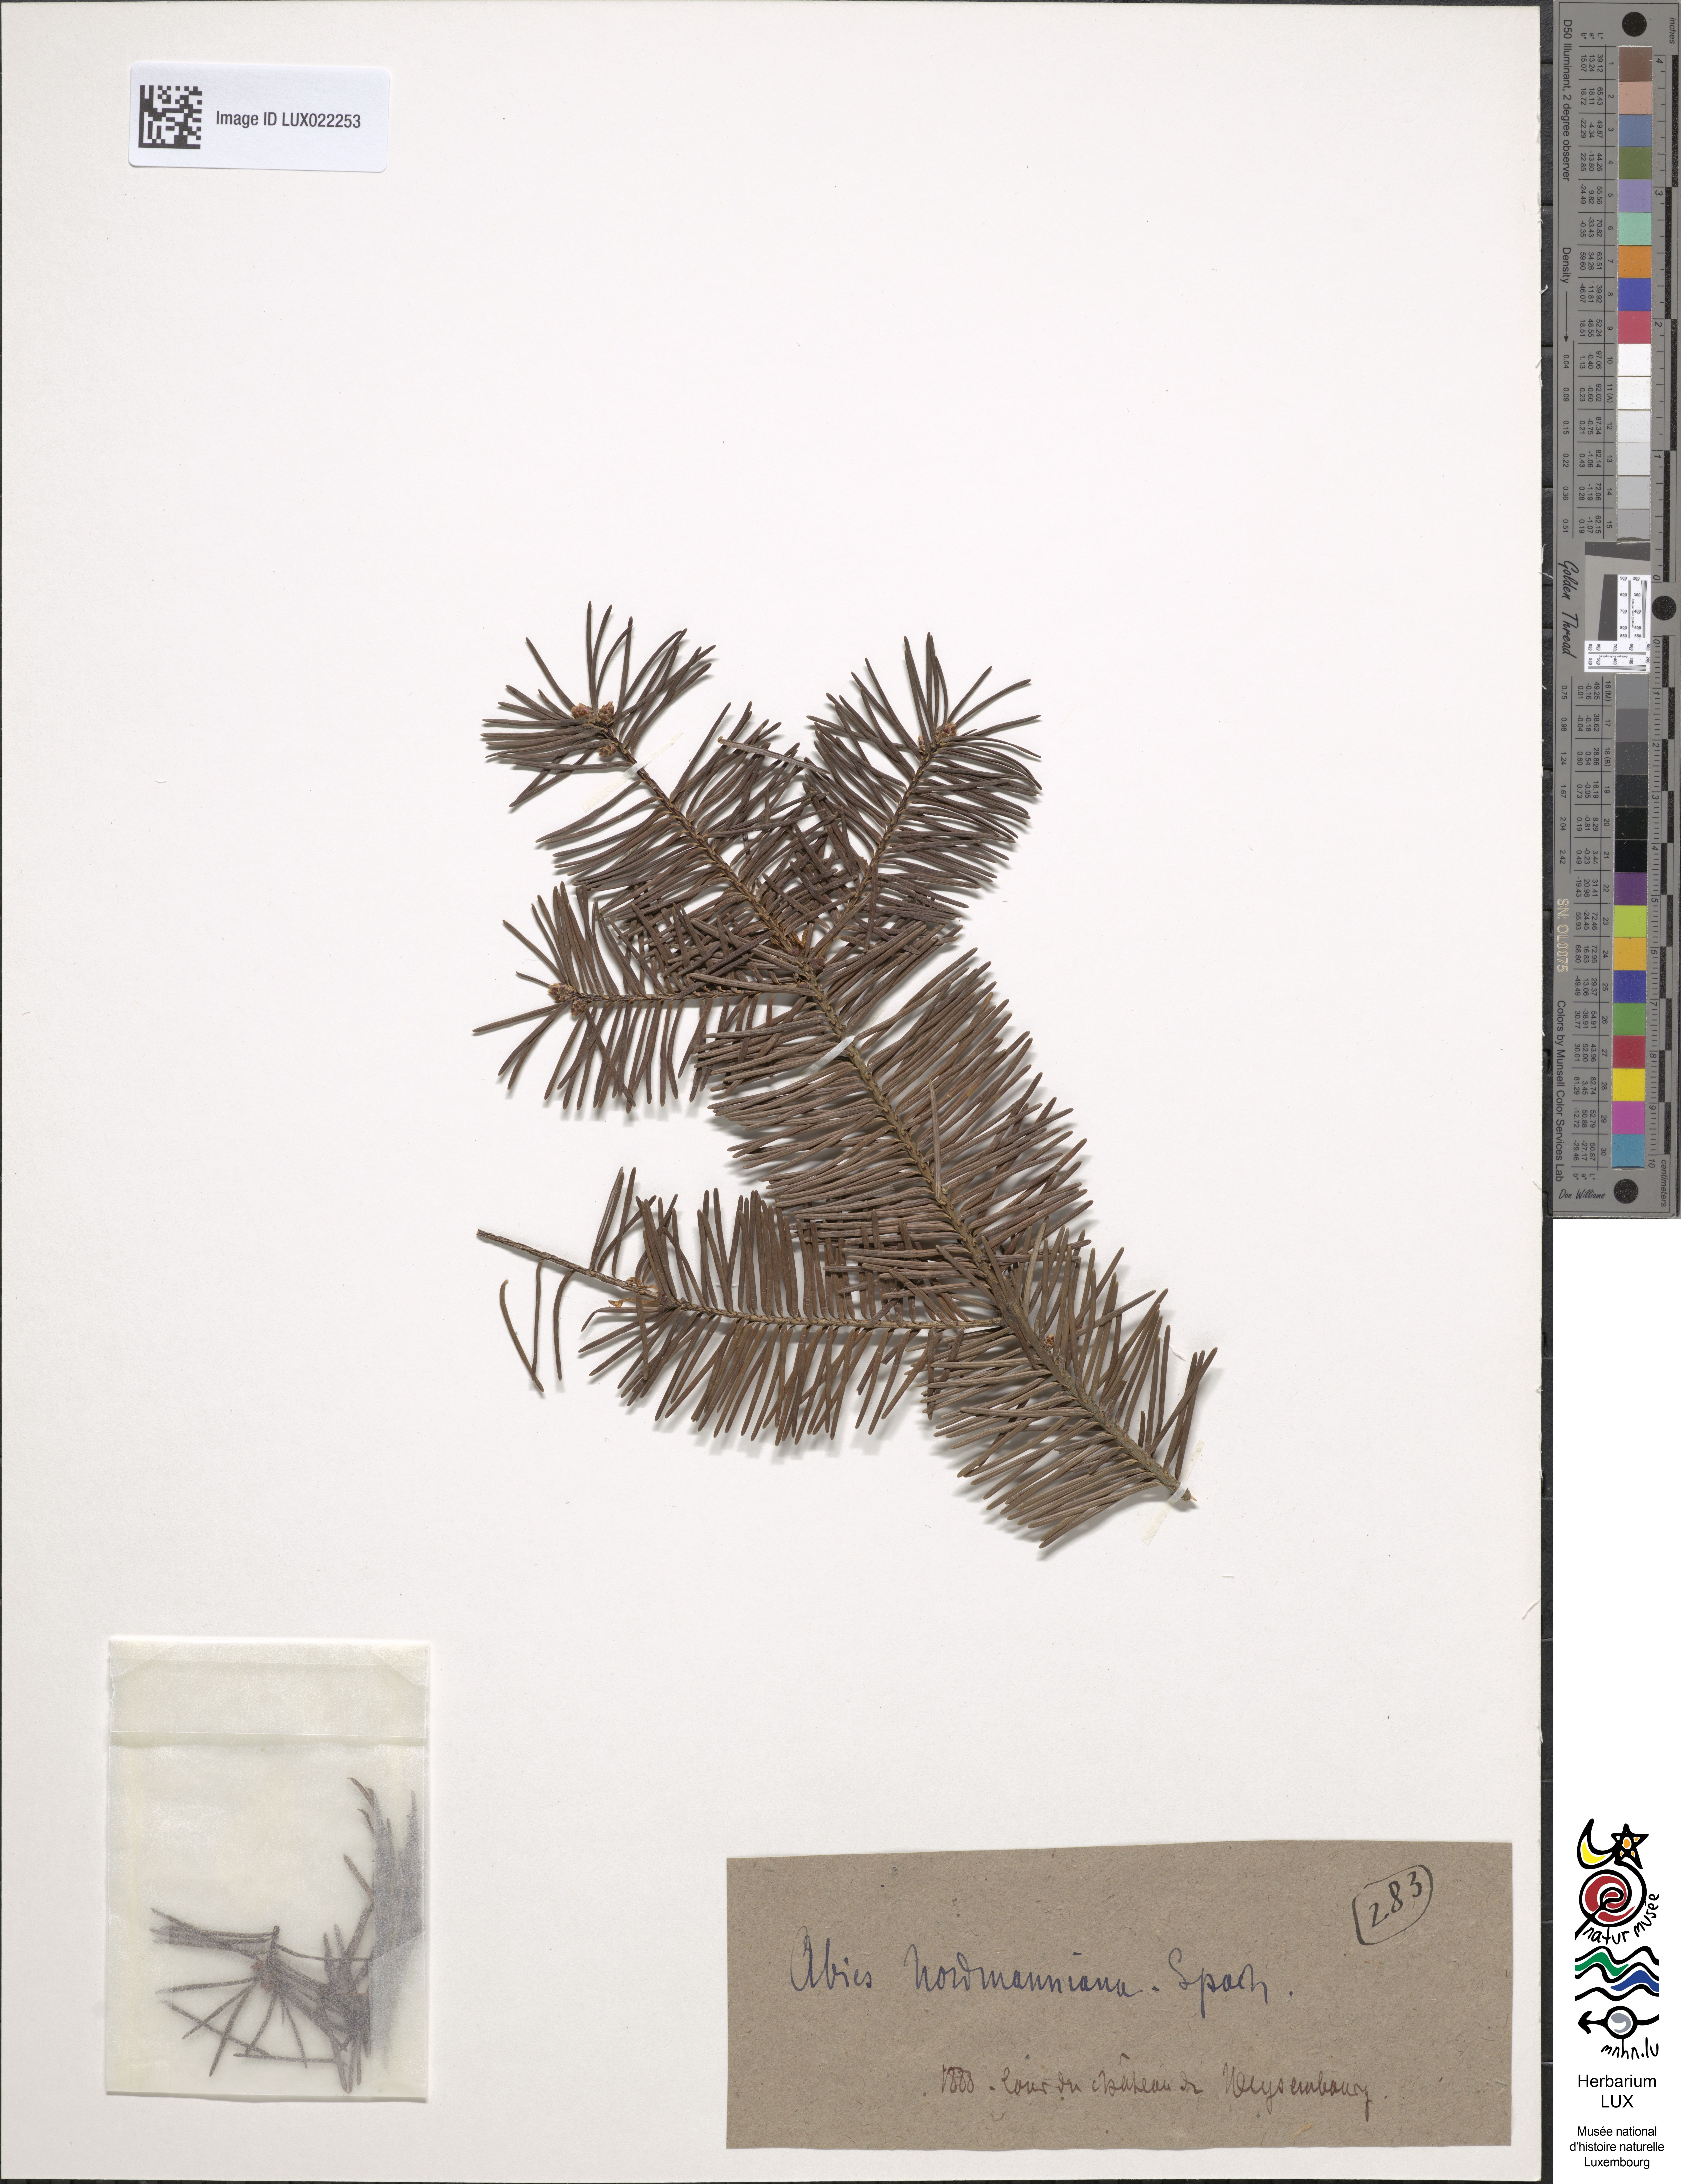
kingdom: Plantae
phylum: Tracheophyta
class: Pinopsida
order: Pinales
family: Pinaceae
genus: Abies
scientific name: Abies nordmanniana
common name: Caucasian fir
